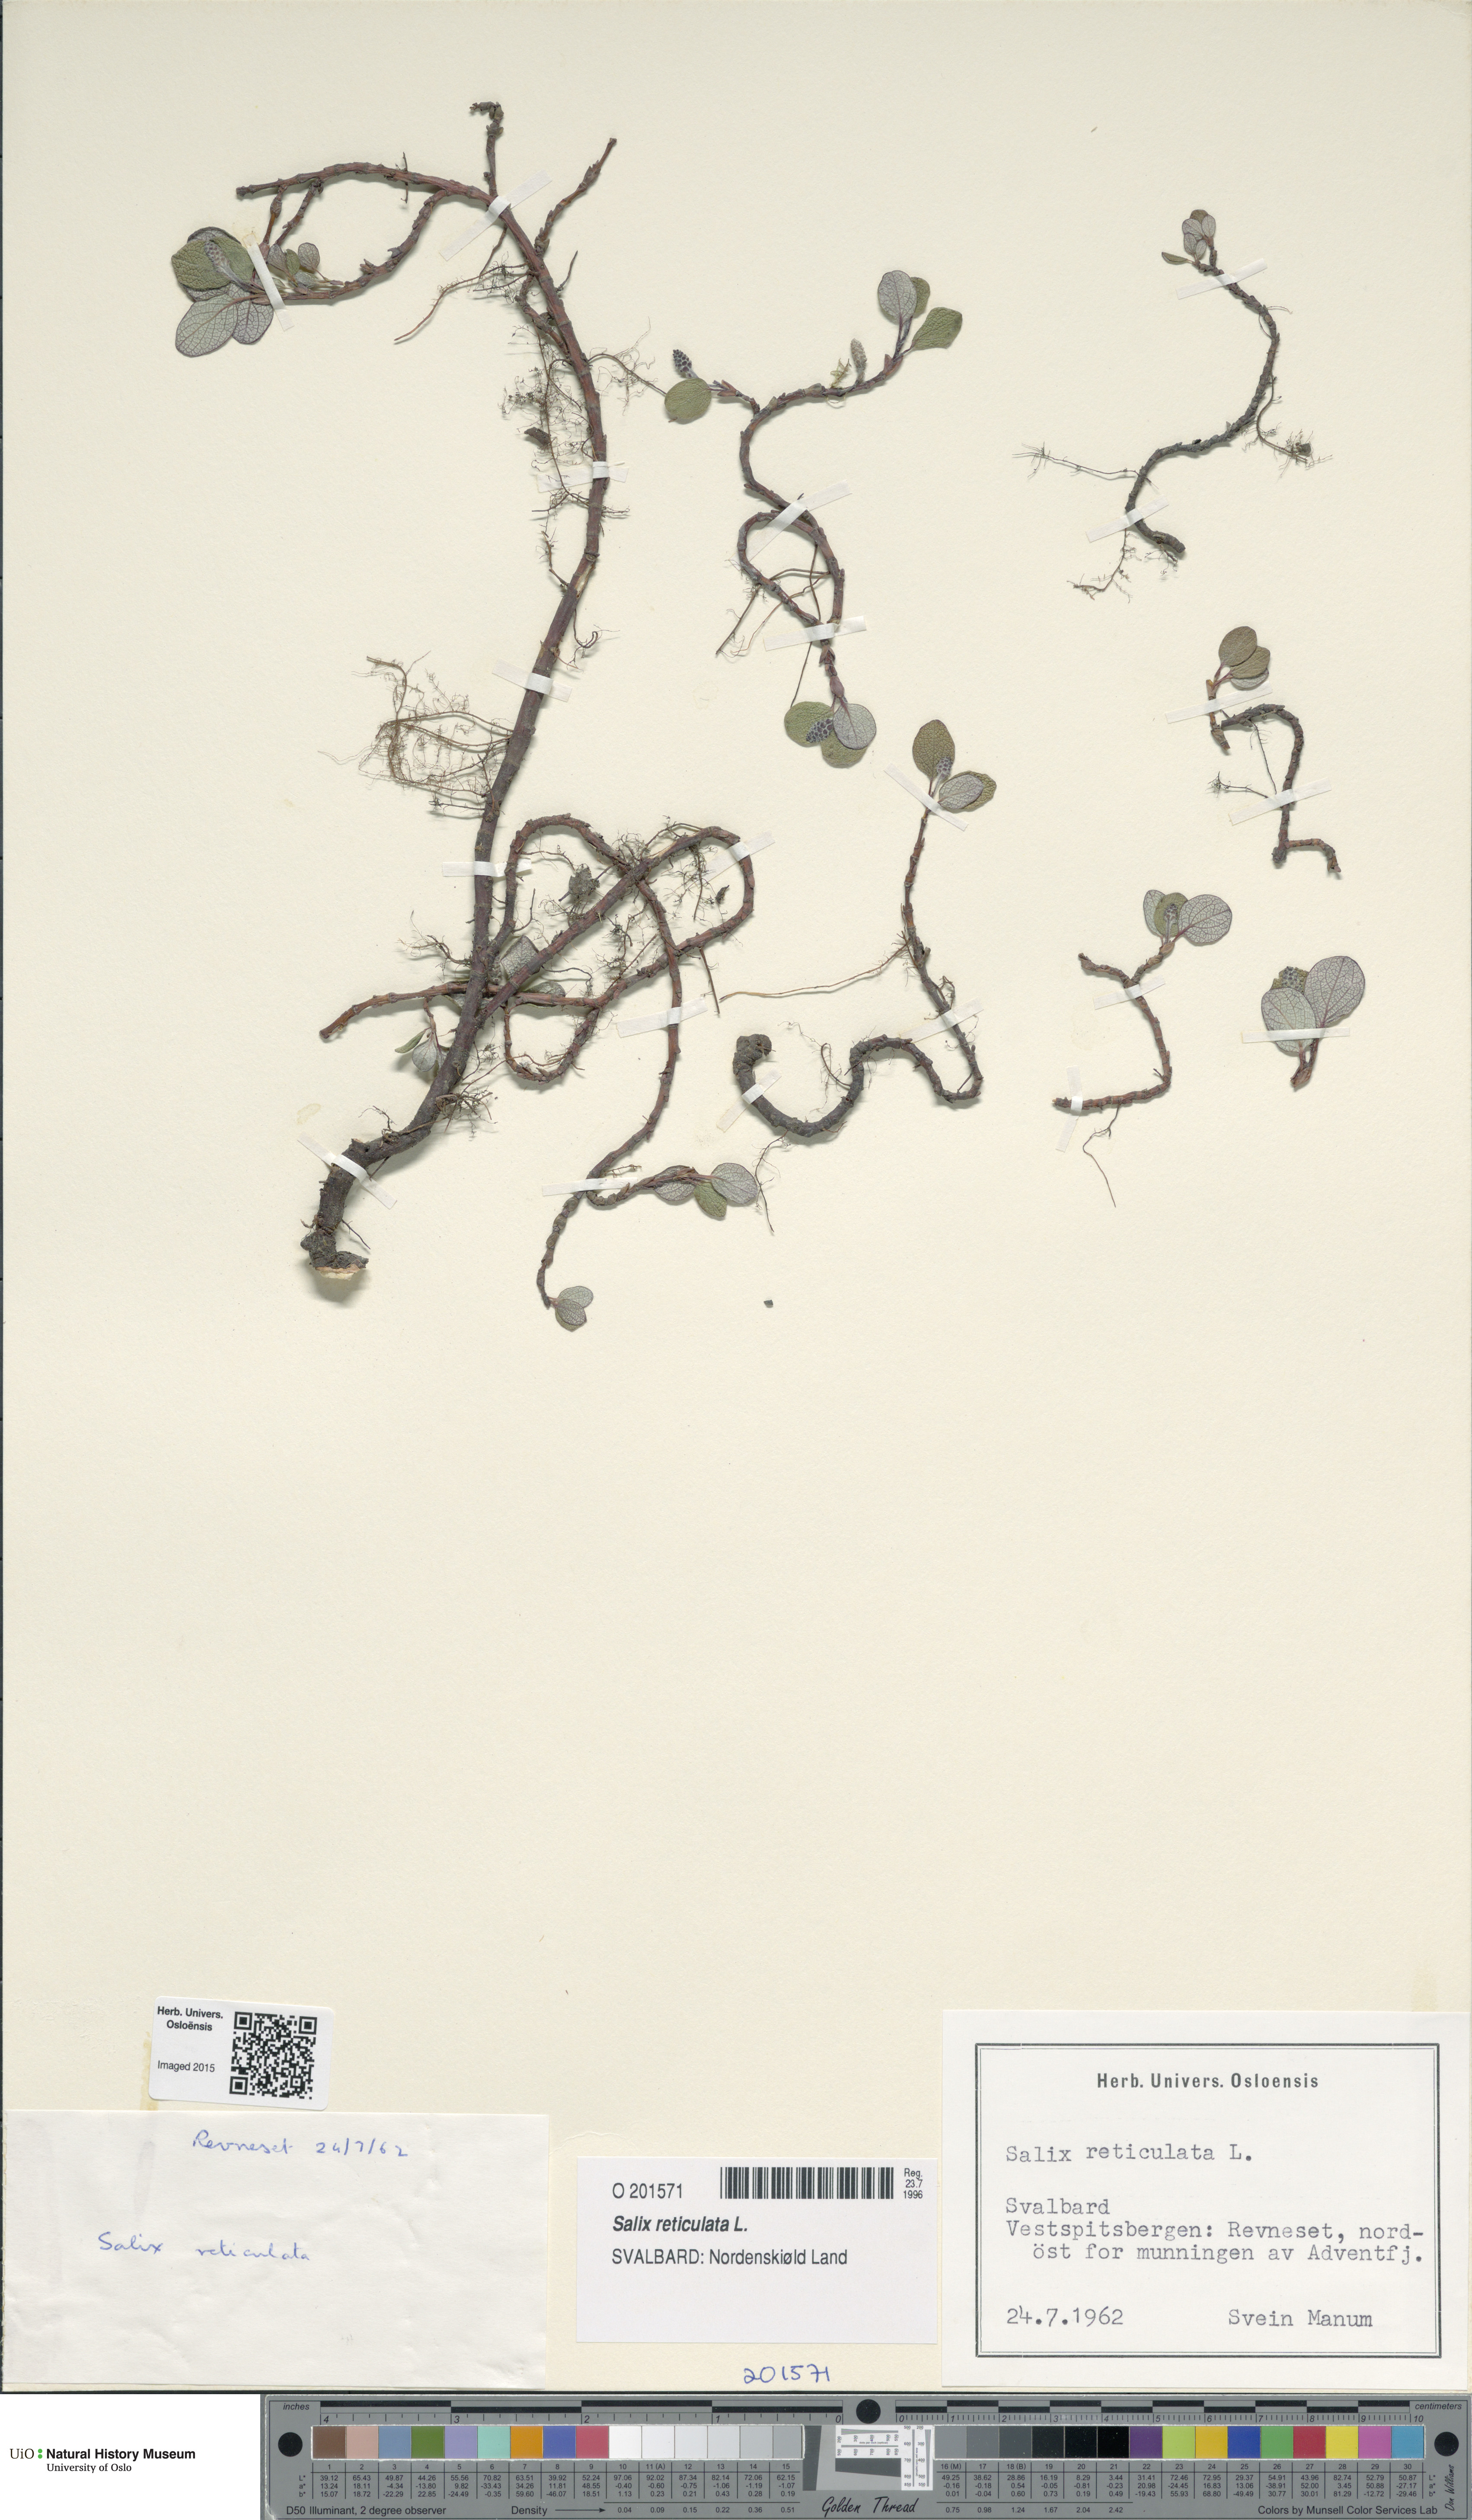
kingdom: Plantae
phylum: Tracheophyta
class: Magnoliopsida
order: Malpighiales
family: Salicaceae
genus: Salix
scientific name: Salix reticulata
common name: Net-leaved willow
